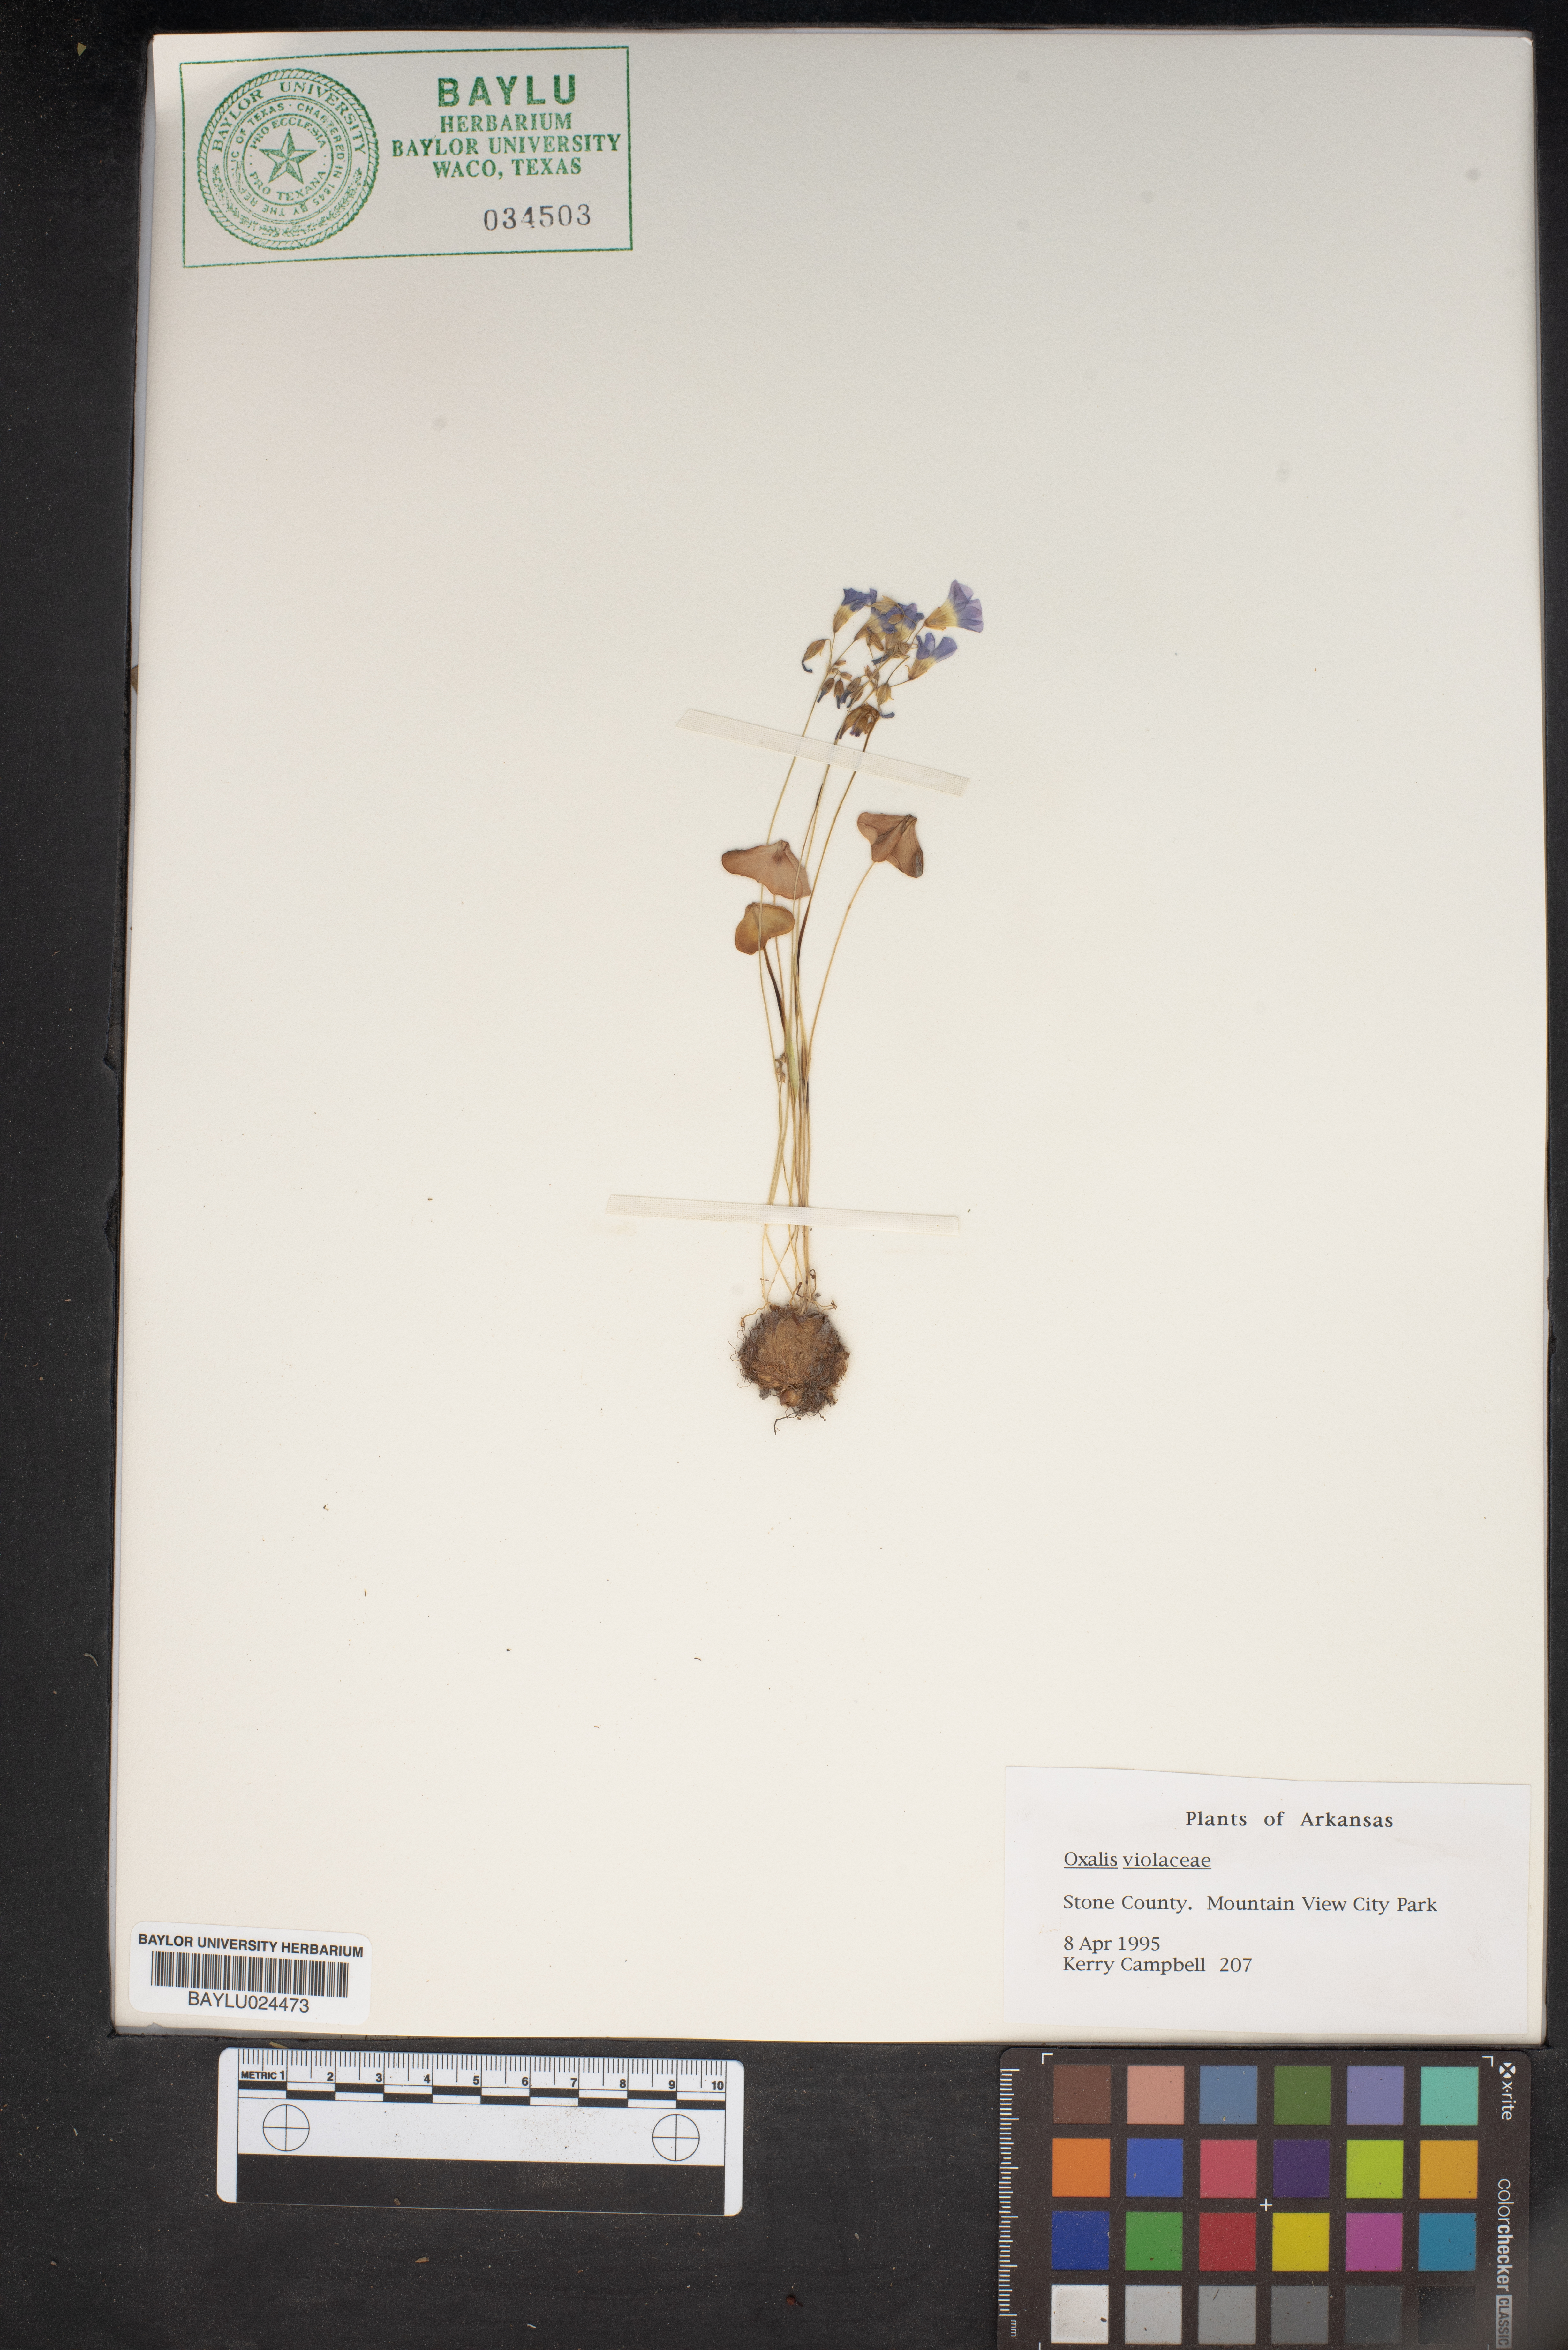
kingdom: Plantae
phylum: Tracheophyta
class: Magnoliopsida
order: Oxalidales
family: Oxalidaceae
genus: Oxalis
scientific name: Oxalis violacea
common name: Violet wood-sorrel
